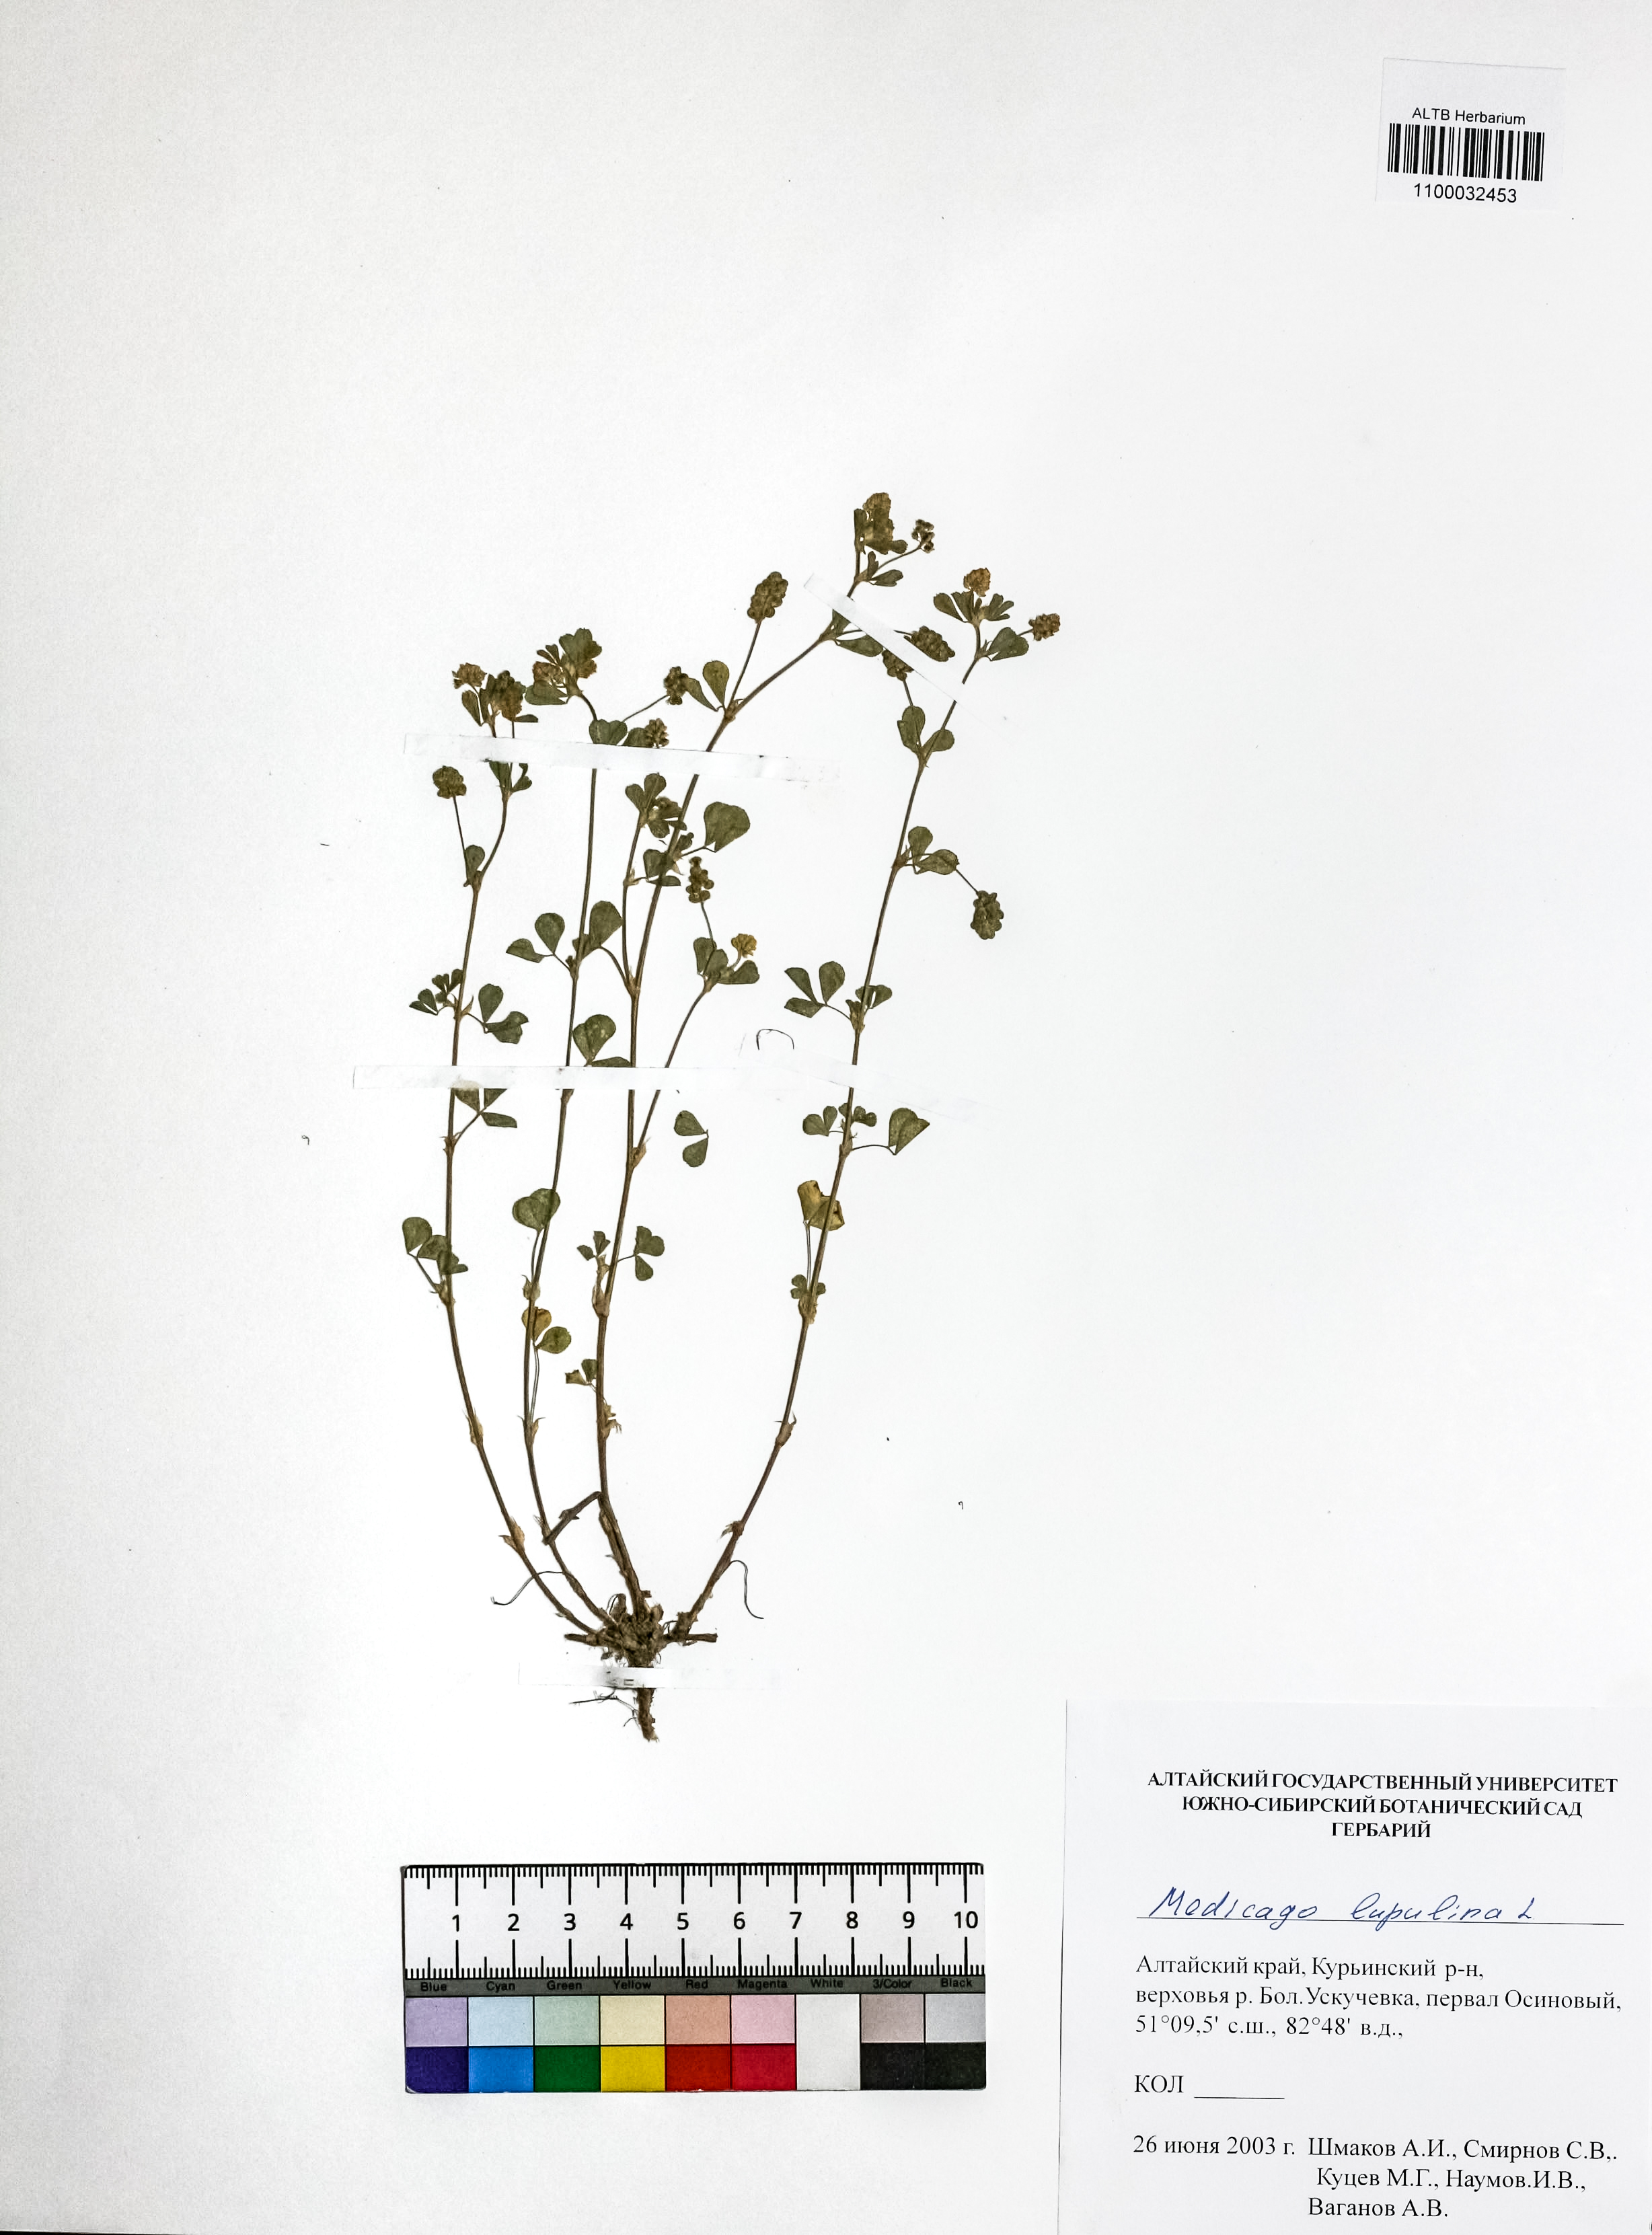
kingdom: Plantae
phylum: Tracheophyta
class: Magnoliopsida
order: Fabales
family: Fabaceae
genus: Medicago
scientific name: Medicago lupulina
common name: Black medick
